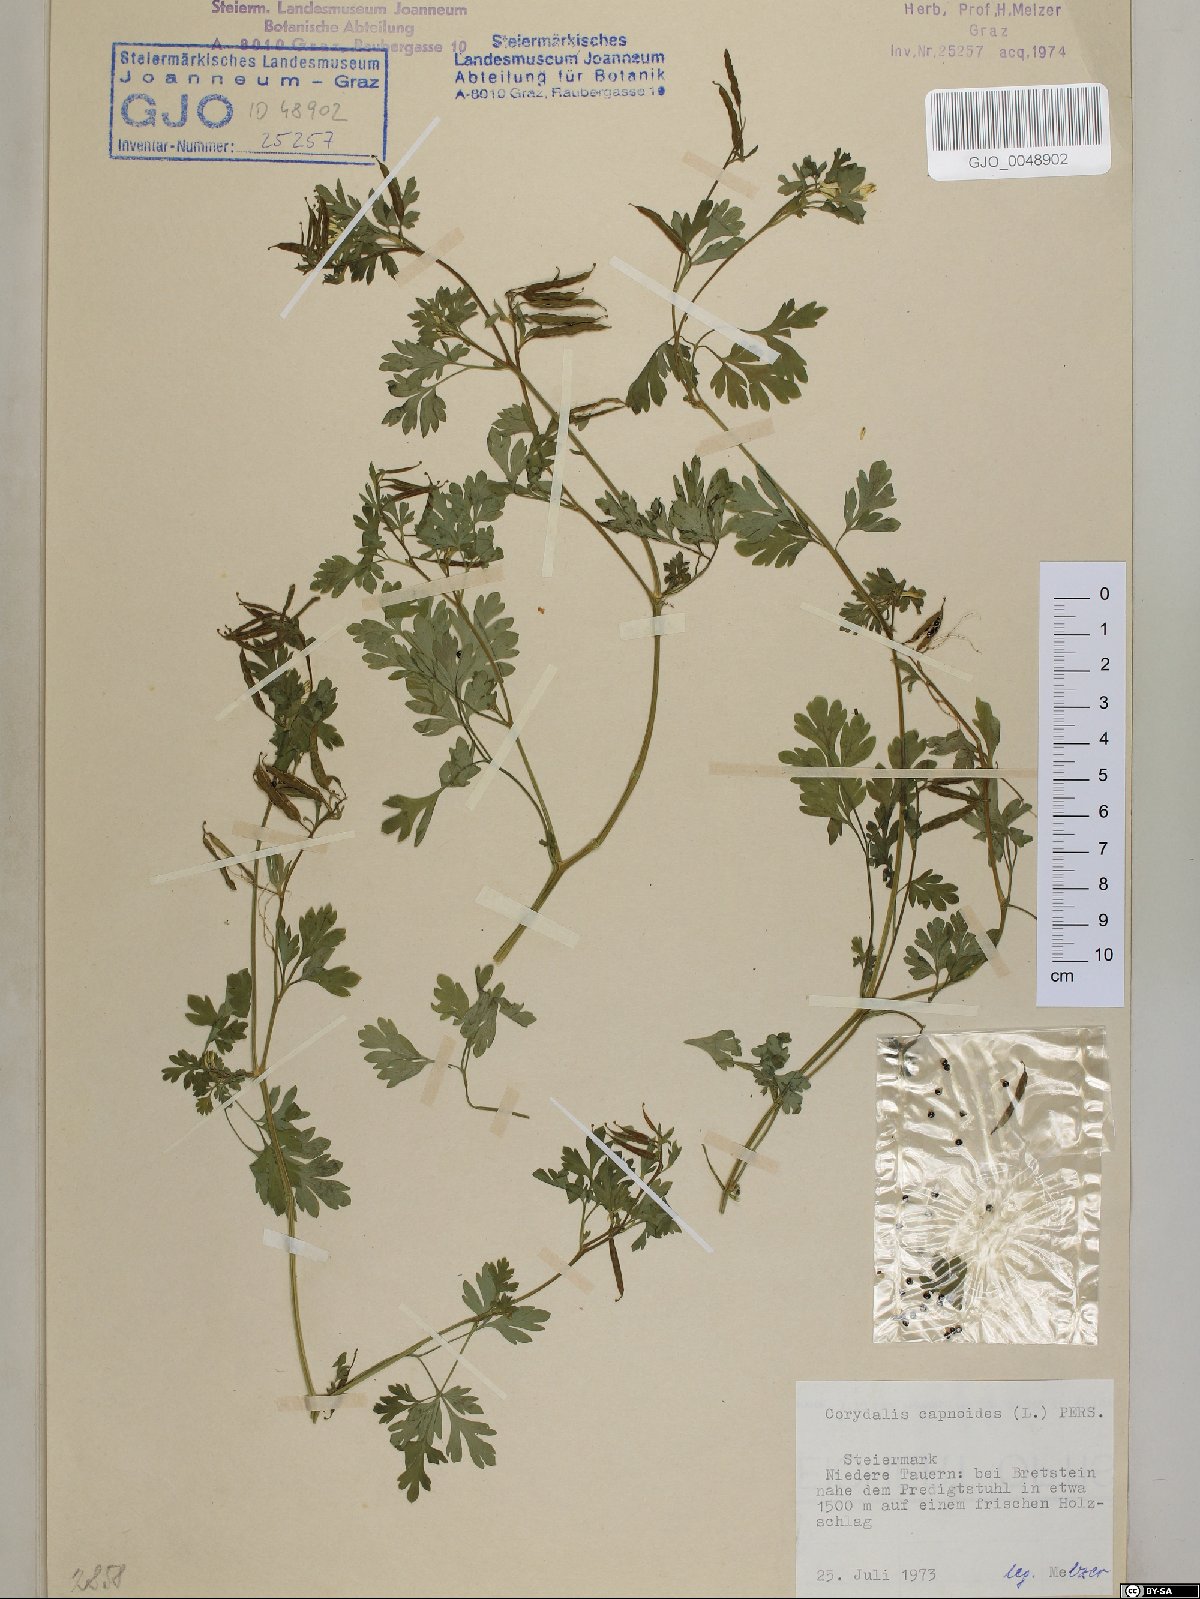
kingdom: Plantae
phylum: Tracheophyta
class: Magnoliopsida
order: Ranunculales
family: Papaveraceae
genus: Corydalis
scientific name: Corydalis capnoides
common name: Beaked corydalis
